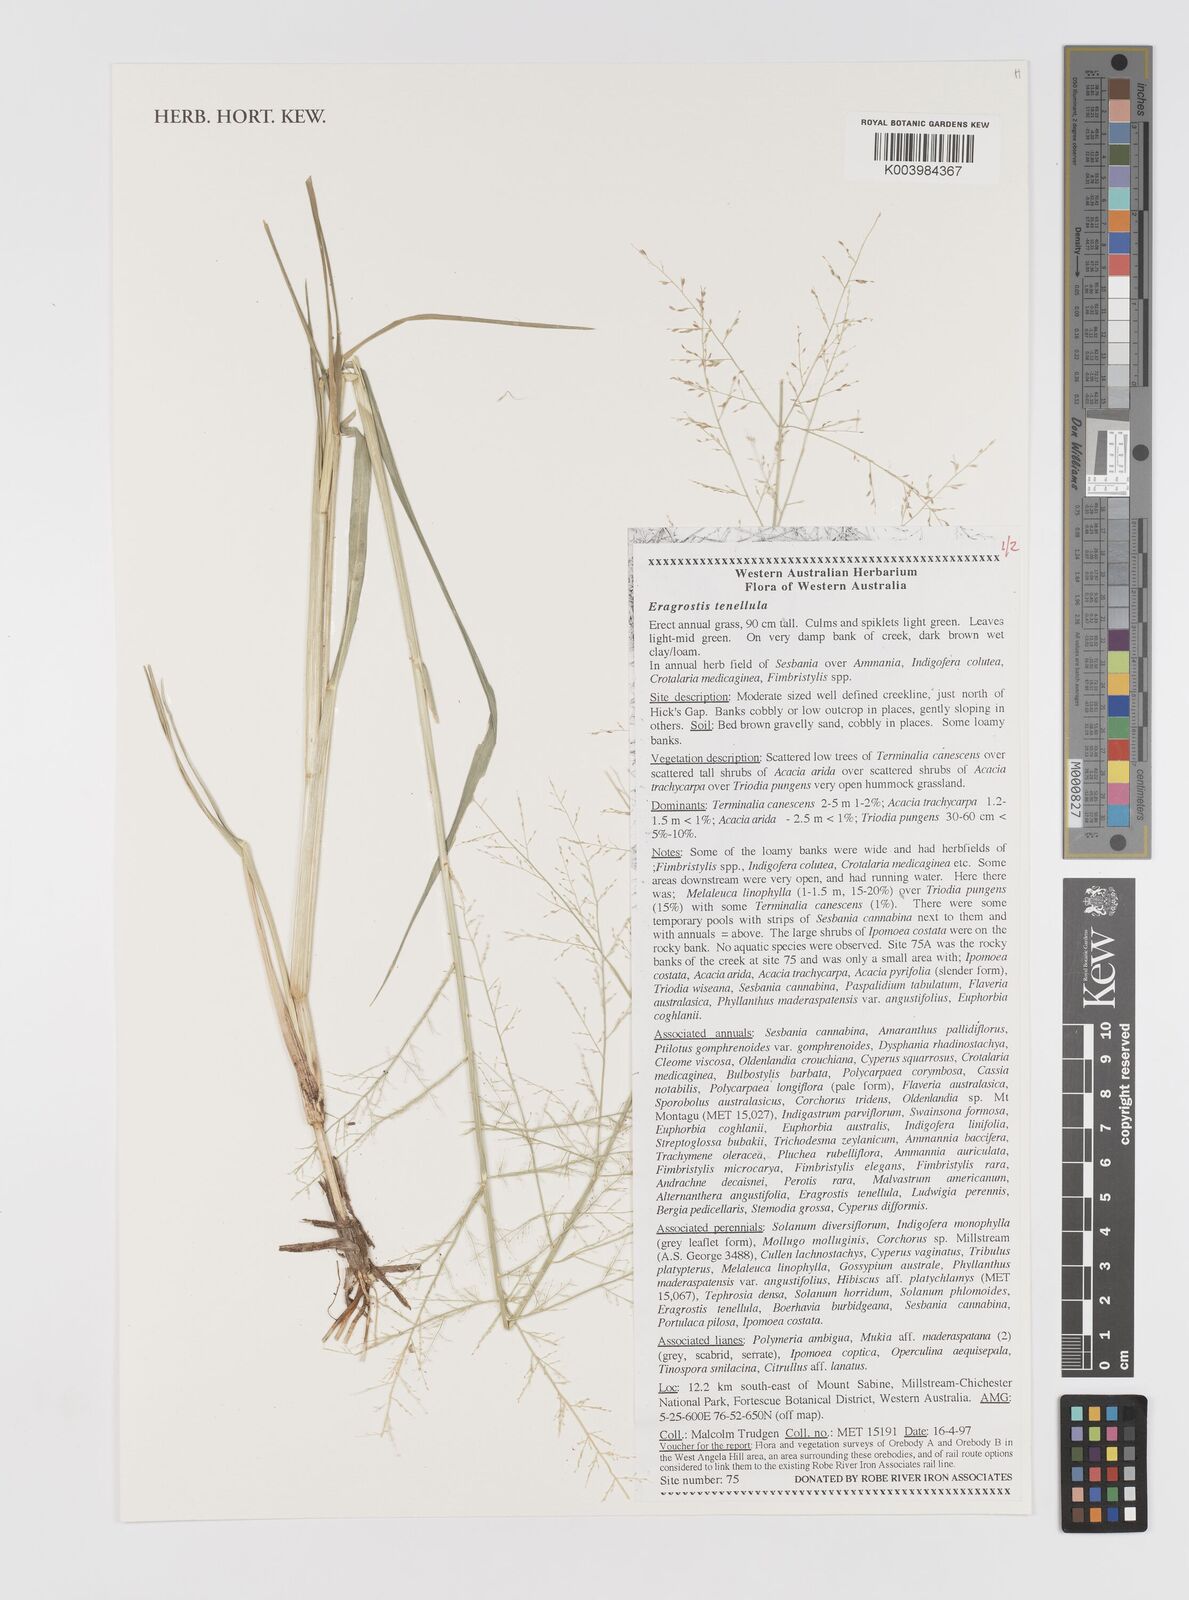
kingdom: Plantae
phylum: Tracheophyta
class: Liliopsida
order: Poales
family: Poaceae
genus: Eragrostis
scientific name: Eragrostis tenellula
